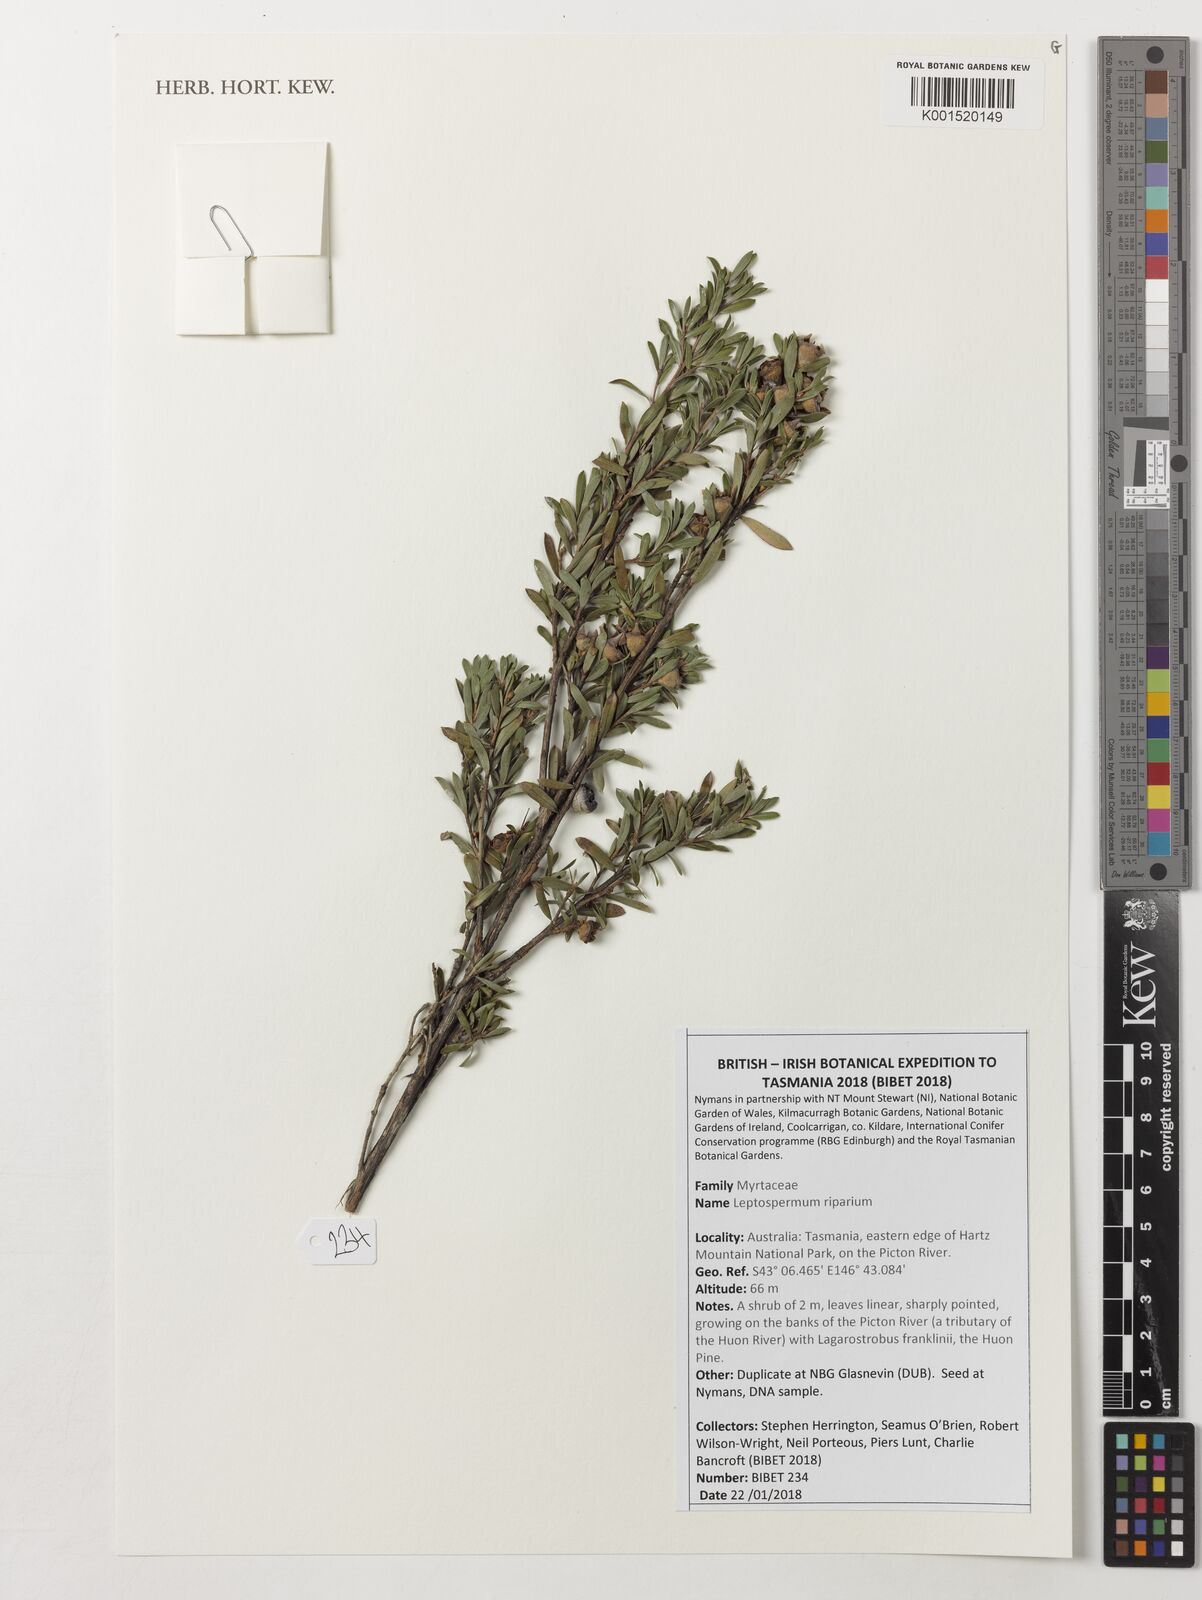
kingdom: Plantae
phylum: Tracheophyta
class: Magnoliopsida
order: Myrtales
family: Myrtaceae
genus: Leptospermum
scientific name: Leptospermum riparium
